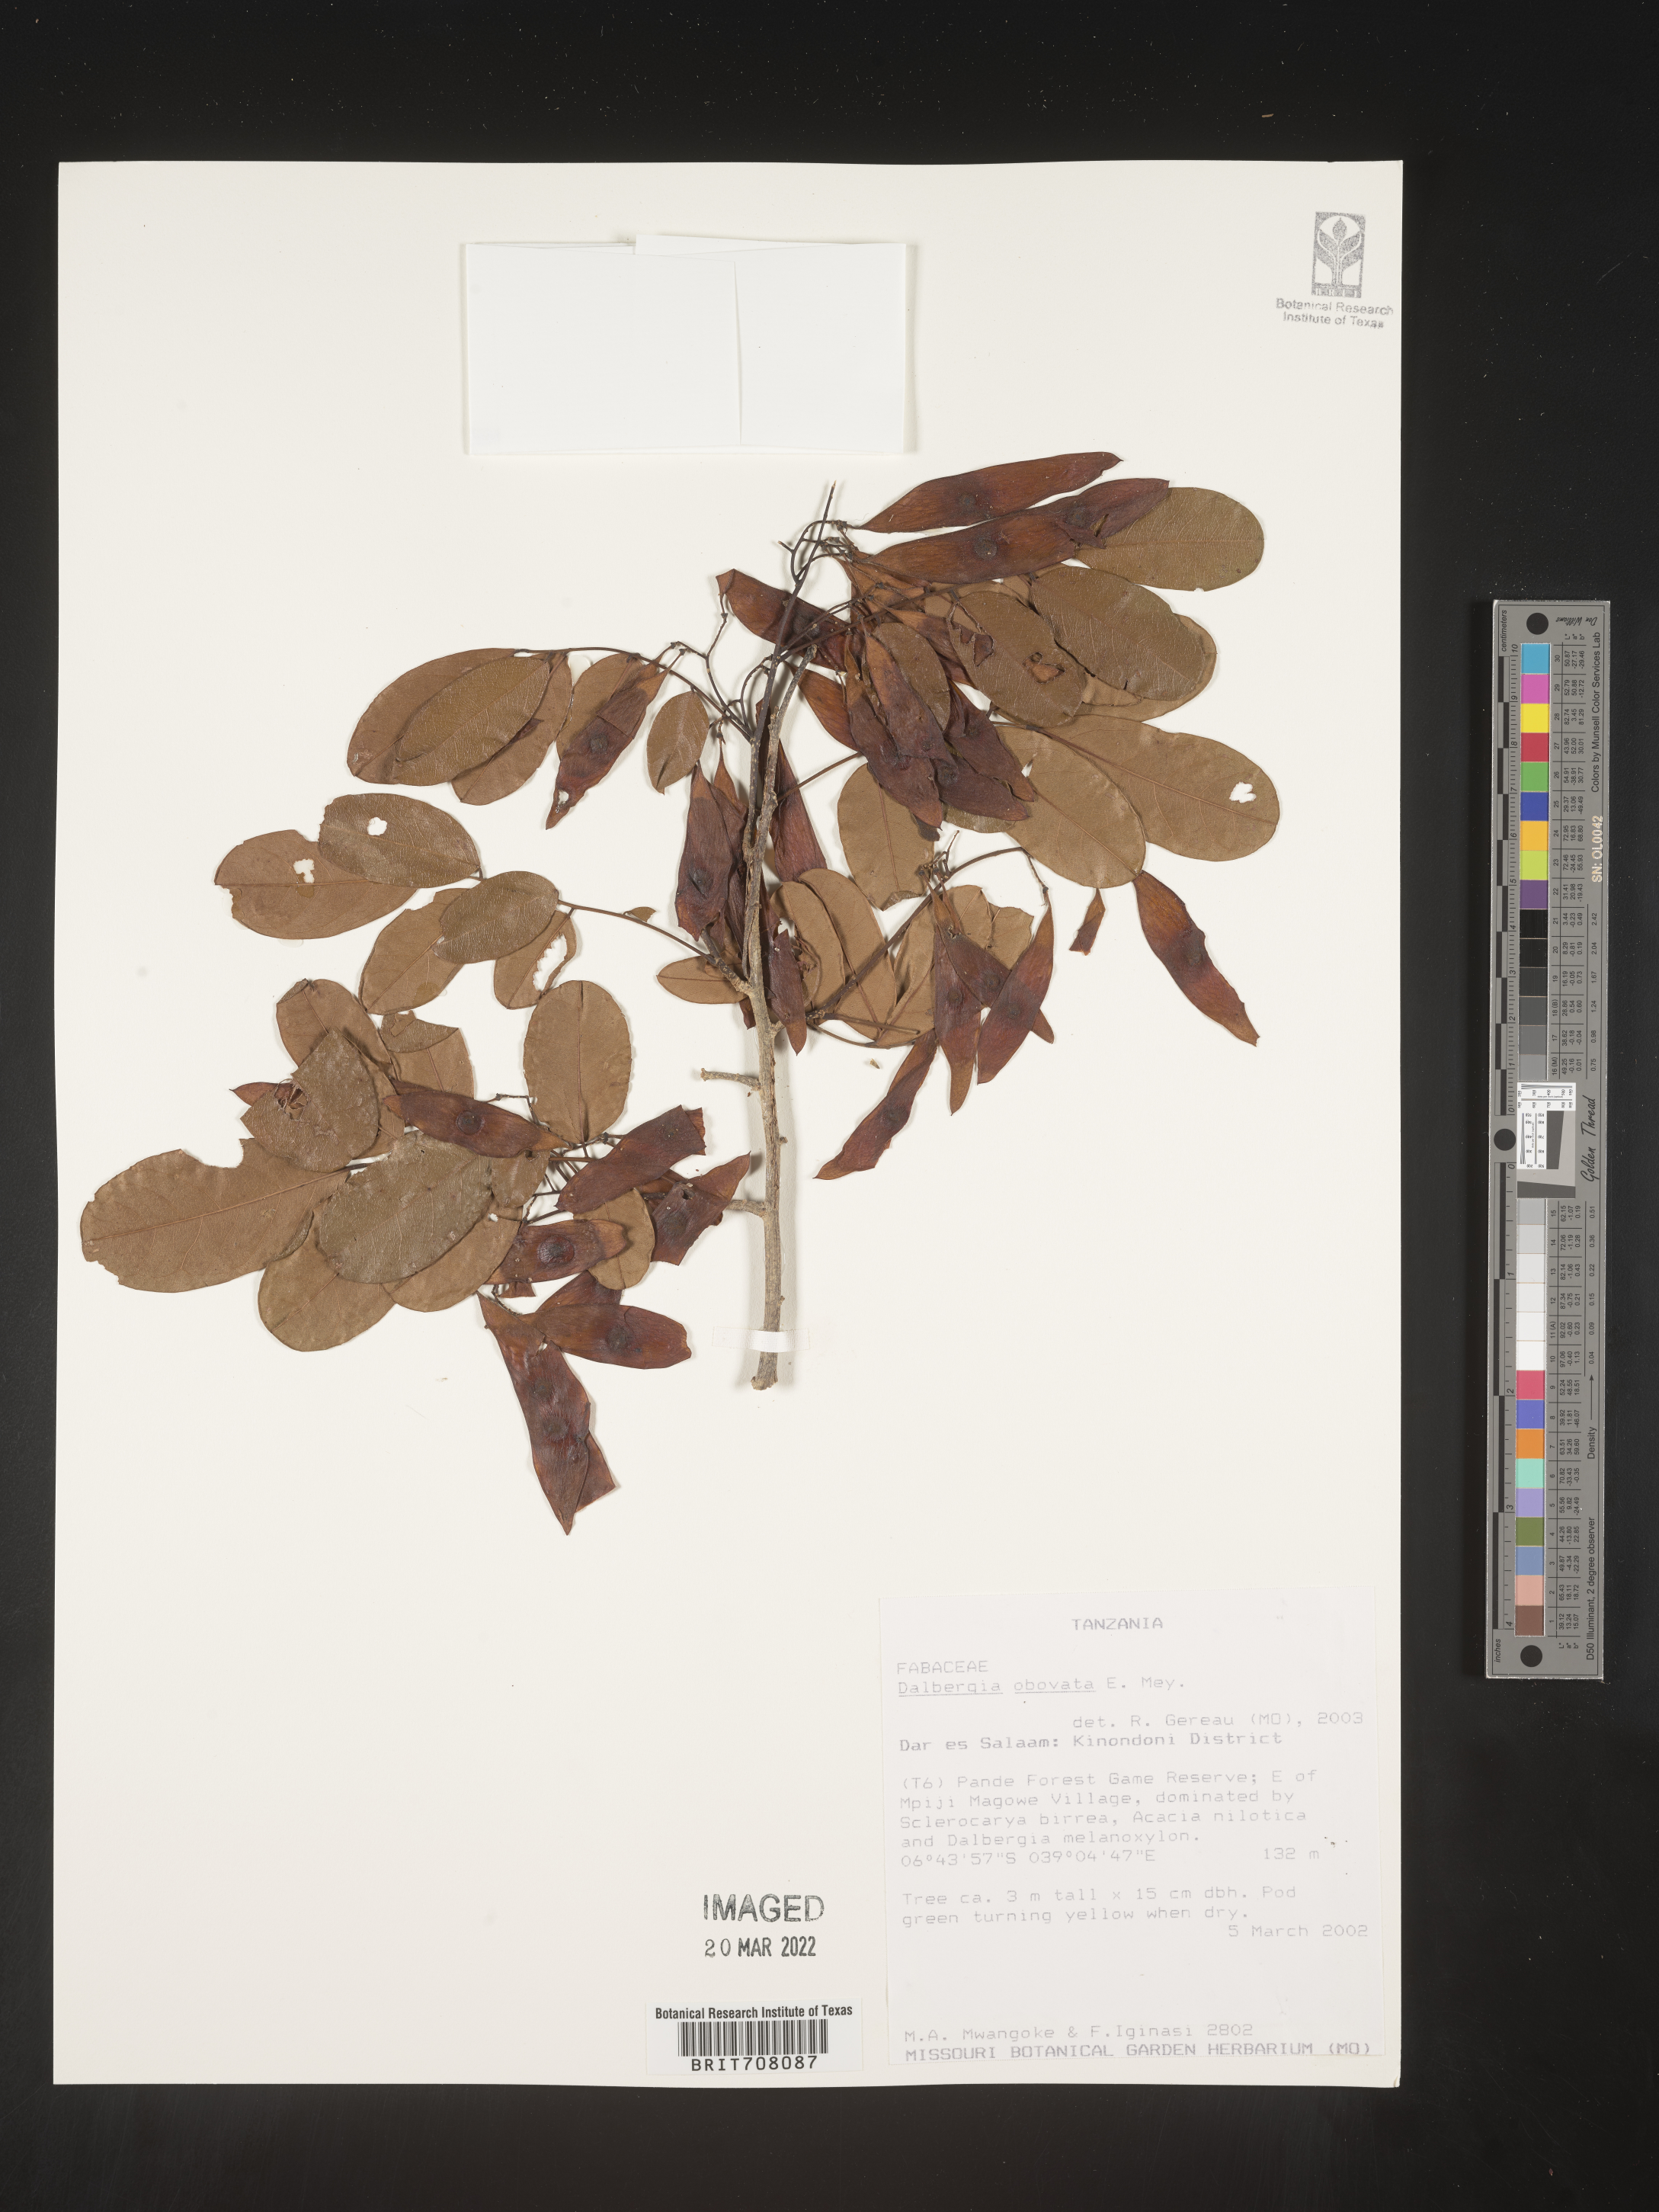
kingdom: Plantae
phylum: Tracheophyta
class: Magnoliopsida
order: Fabales
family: Fabaceae
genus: Dalbergia
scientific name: Dalbergia
